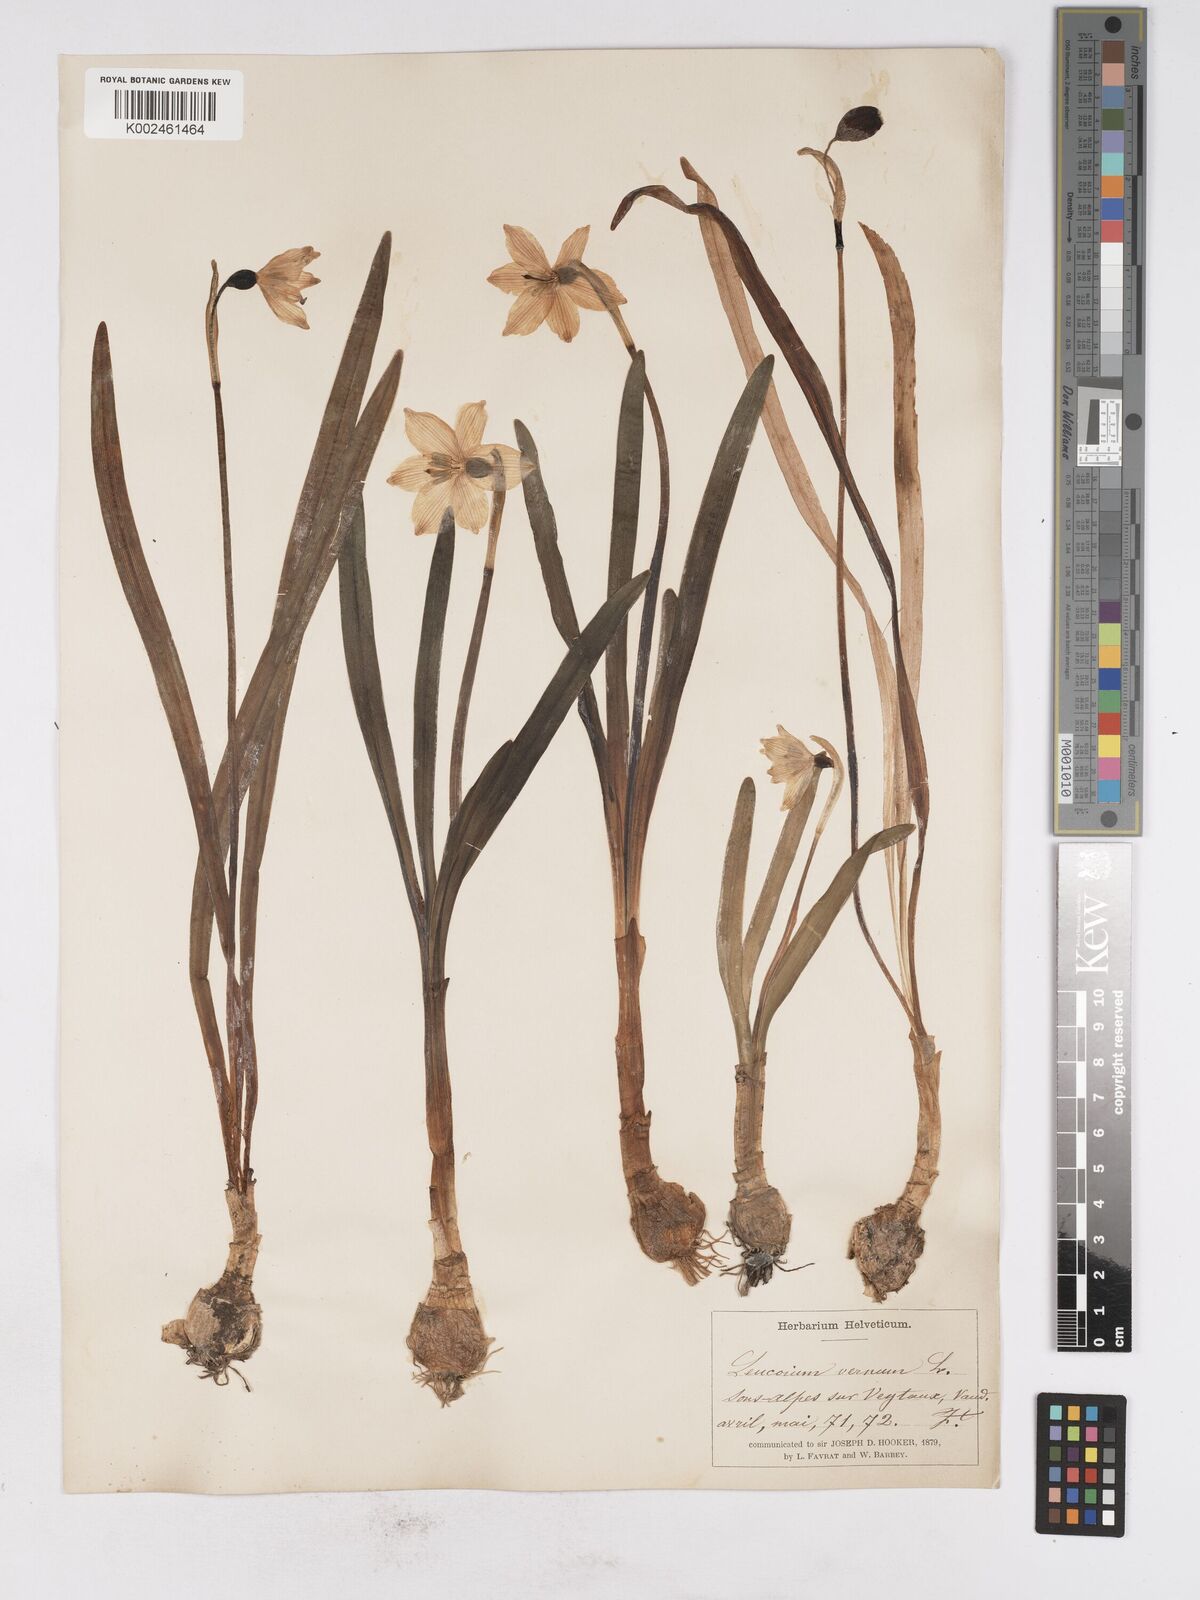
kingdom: Plantae
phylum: Tracheophyta
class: Liliopsida
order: Asparagales
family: Amaryllidaceae
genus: Leucojum
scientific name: Leucojum vernum
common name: Spring snowflake
